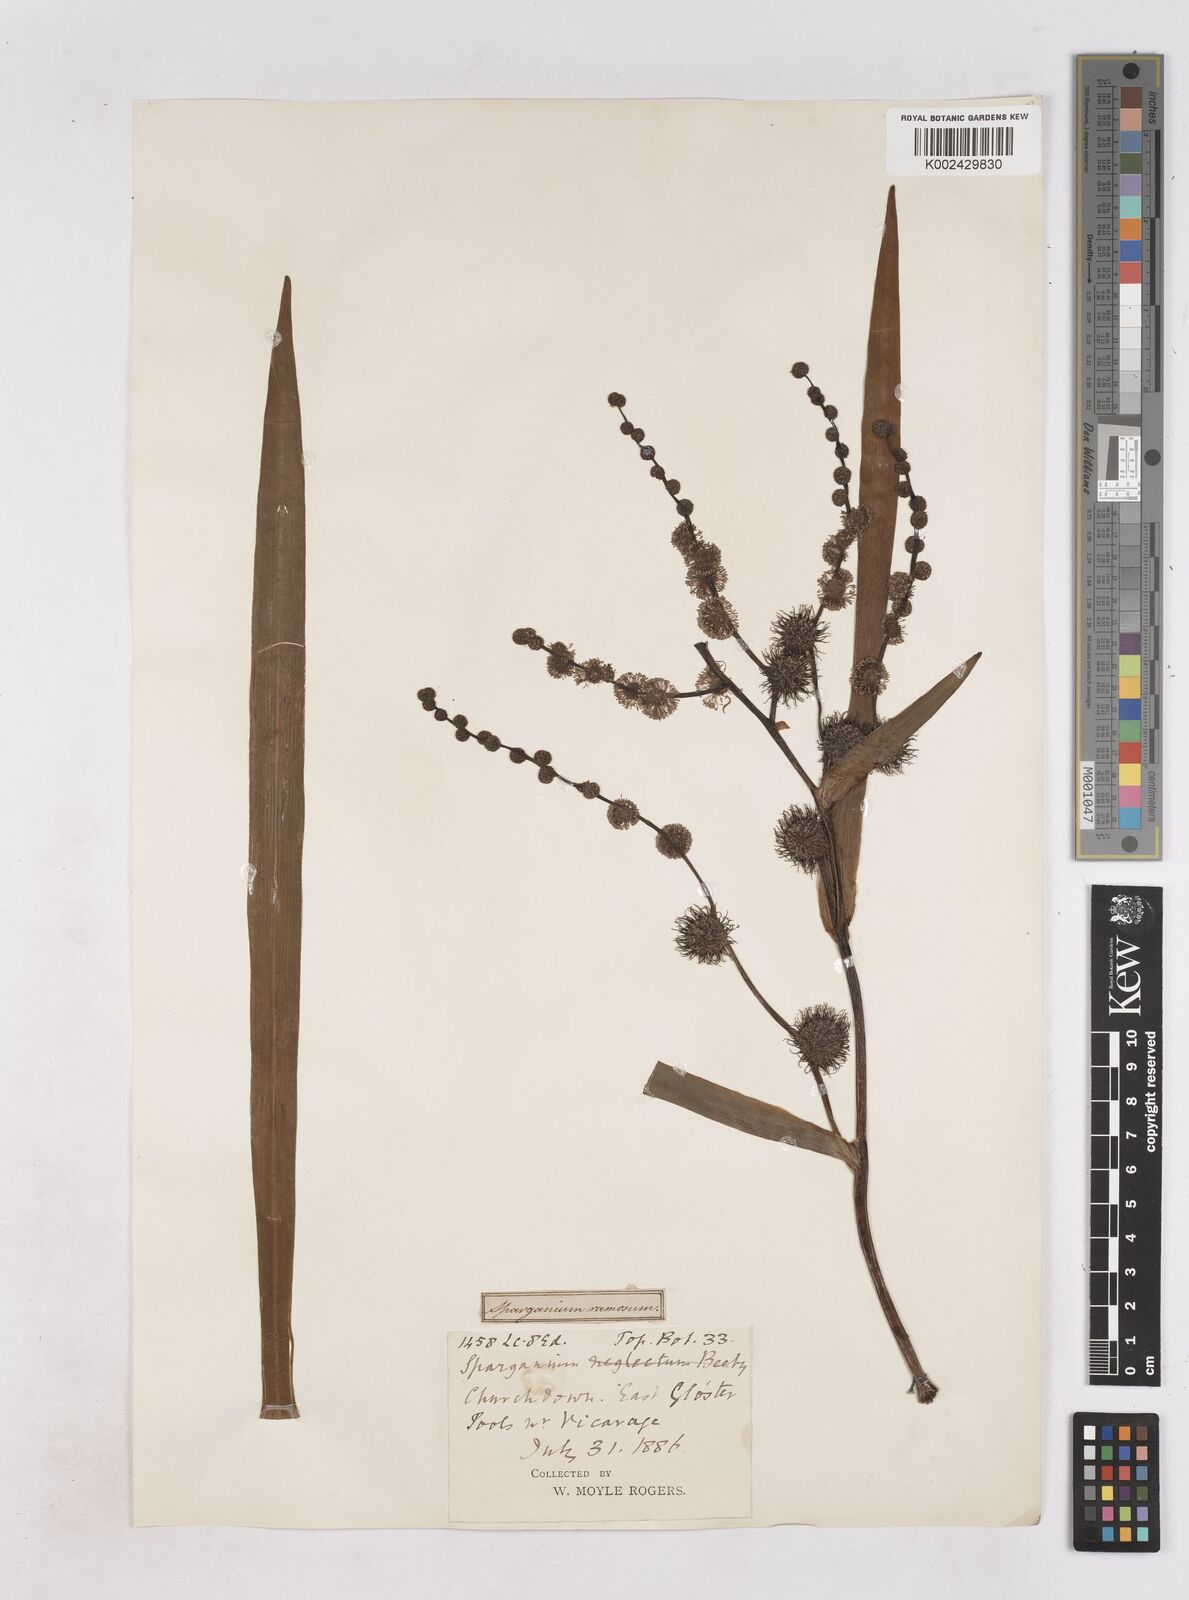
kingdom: Plantae
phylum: Tracheophyta
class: Liliopsida
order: Poales
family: Typhaceae
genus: Sparganium
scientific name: Sparganium erectum
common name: Branched bur-reed
